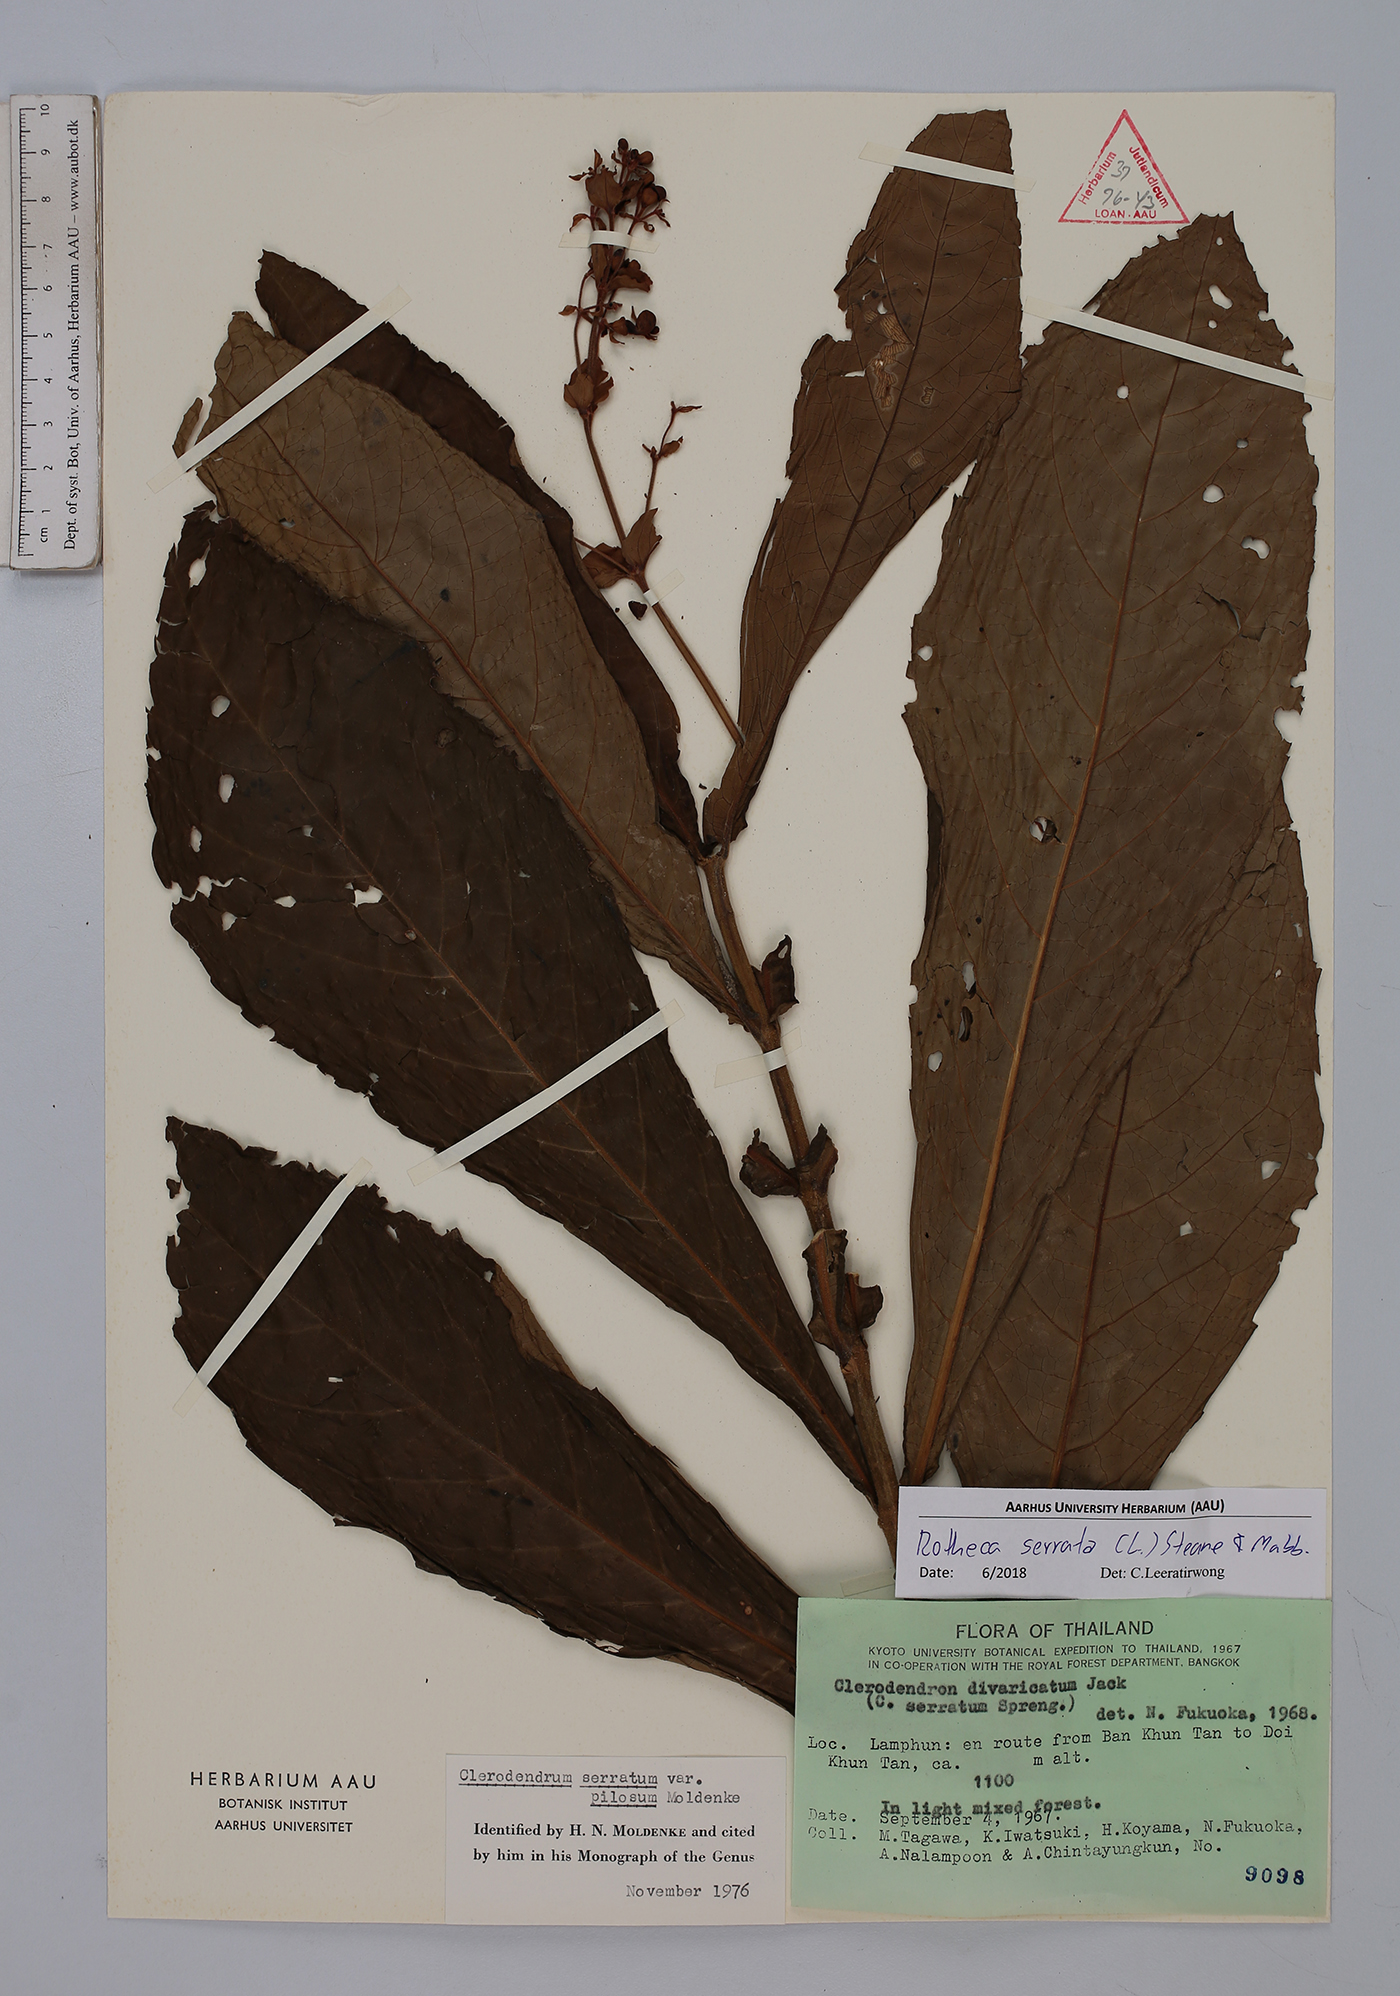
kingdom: Plantae
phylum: Tracheophyta
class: Magnoliopsida
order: Lamiales
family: Lamiaceae
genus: Rotheca
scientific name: Rotheca serrata
